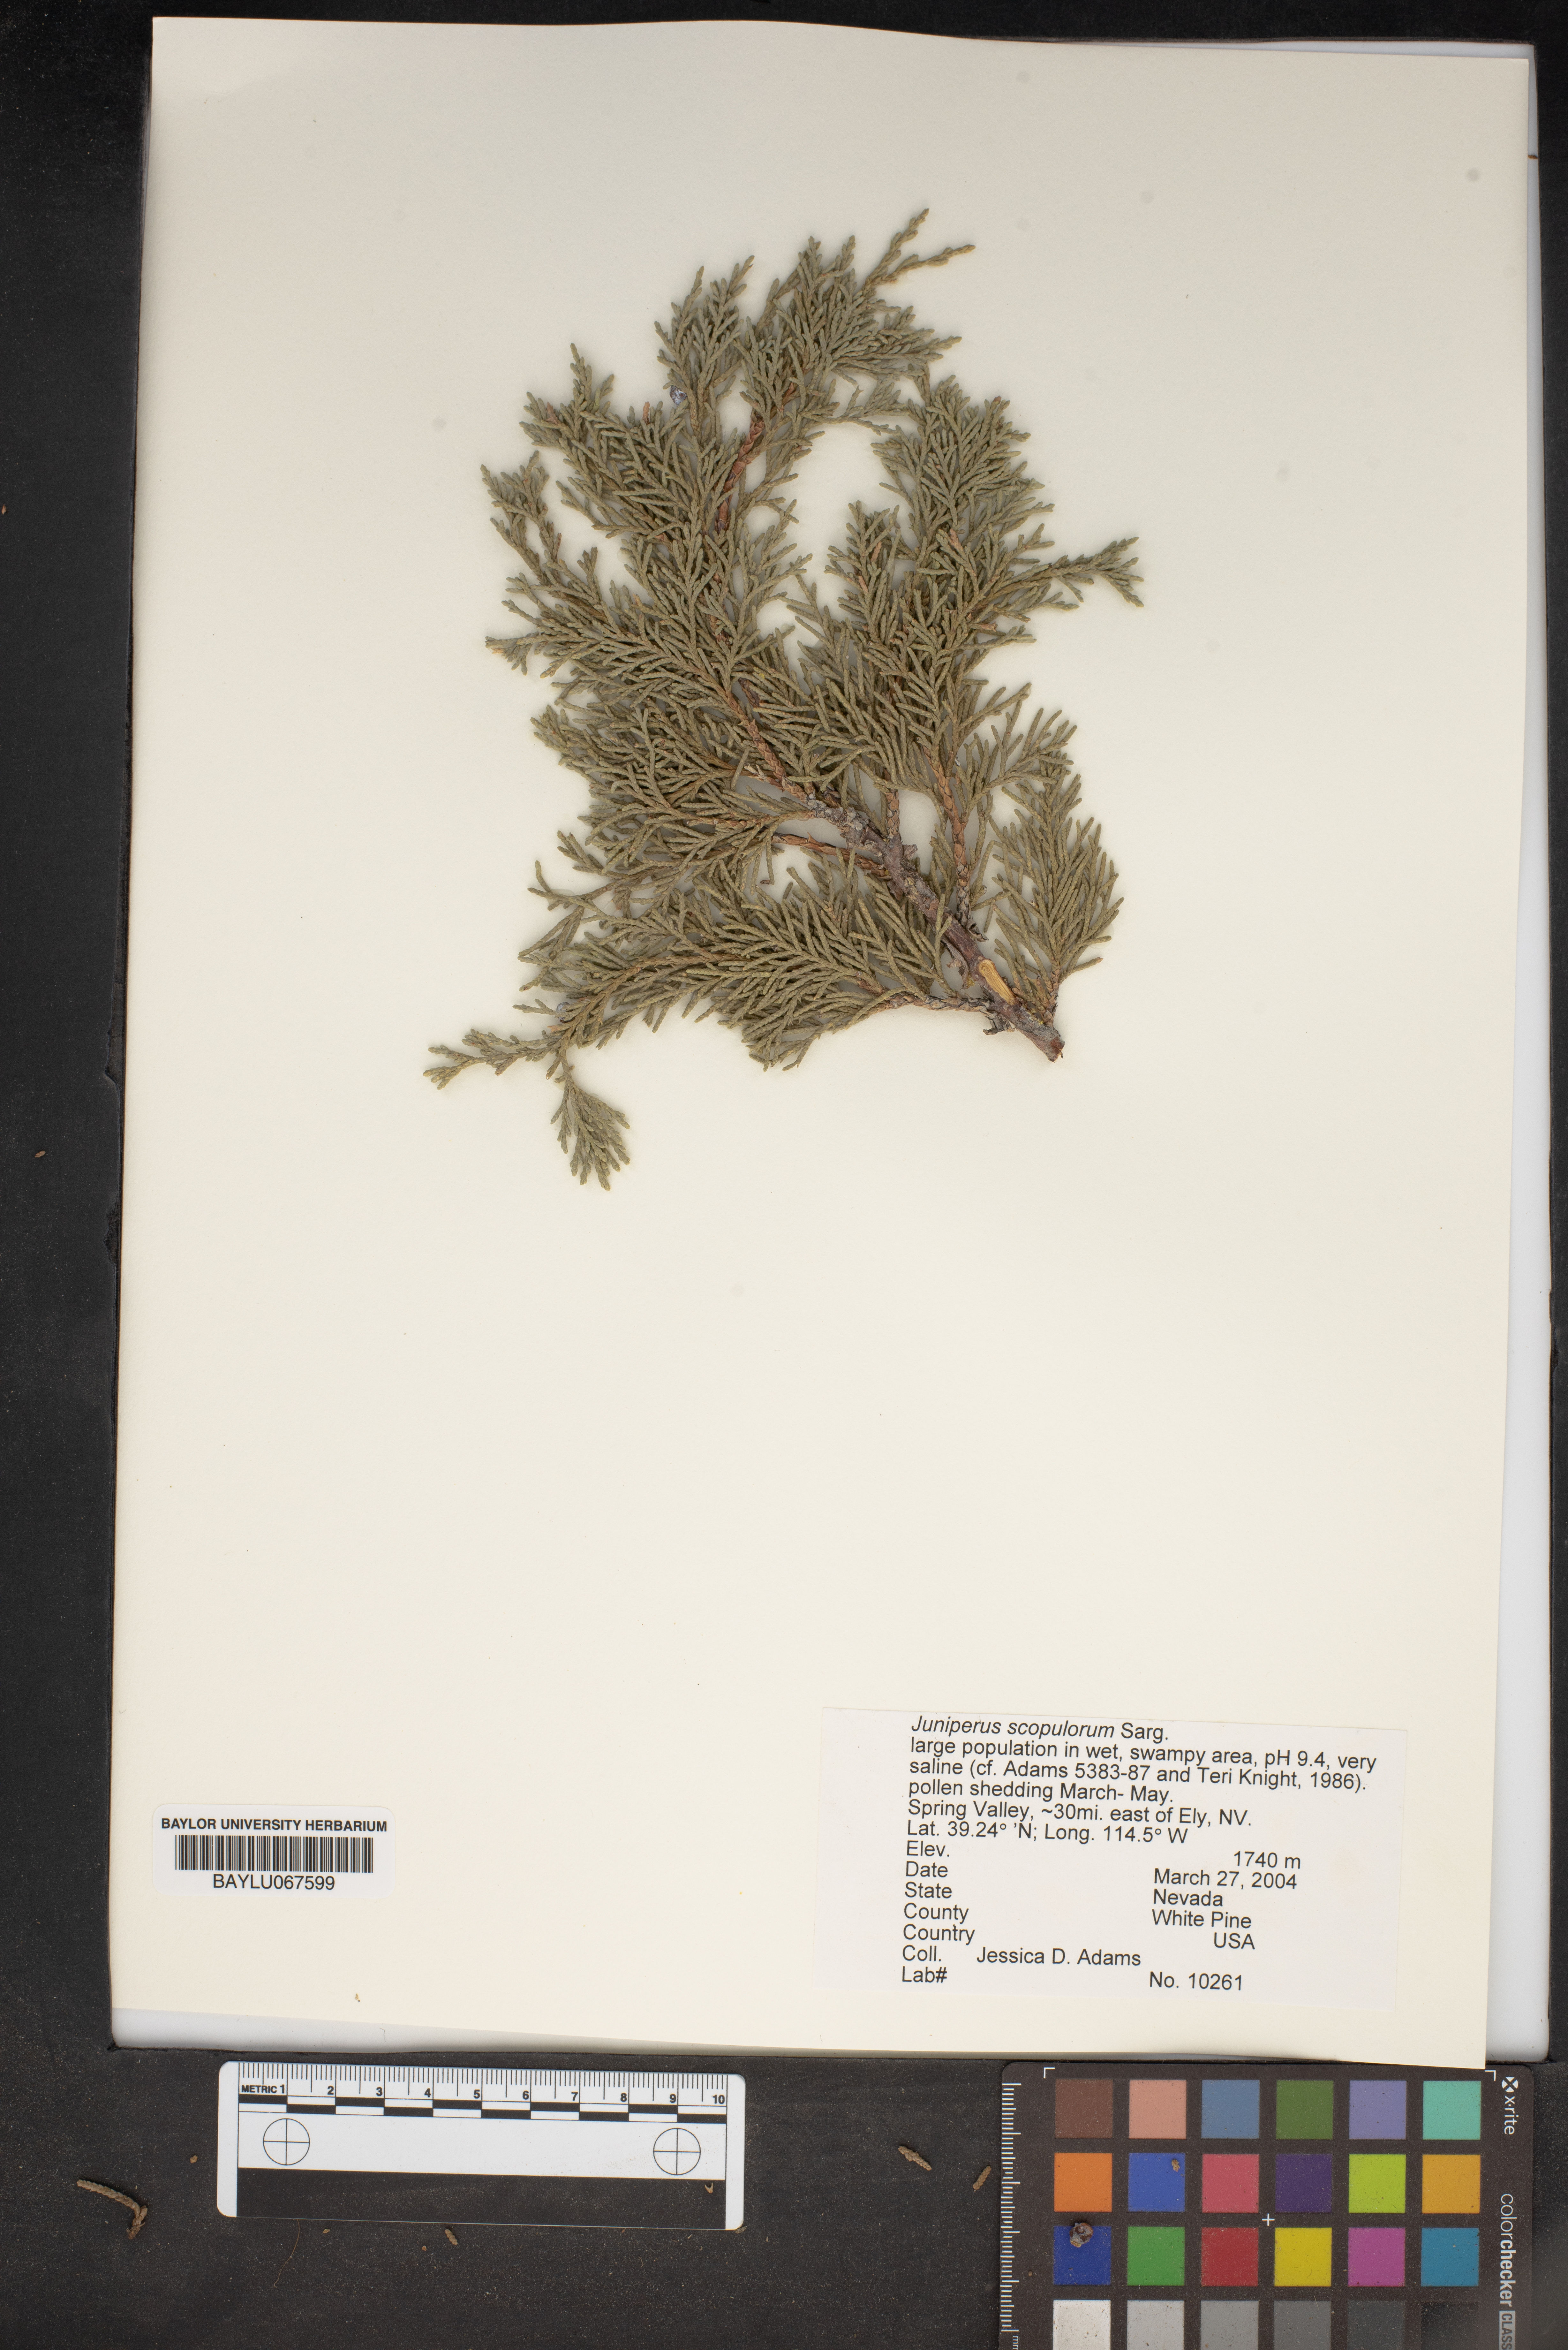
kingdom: Plantae
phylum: Tracheophyta
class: Pinopsida
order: Pinales
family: Cupressaceae
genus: Juniperus
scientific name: Juniperus scopulorum
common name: Rocky mountain juniper
